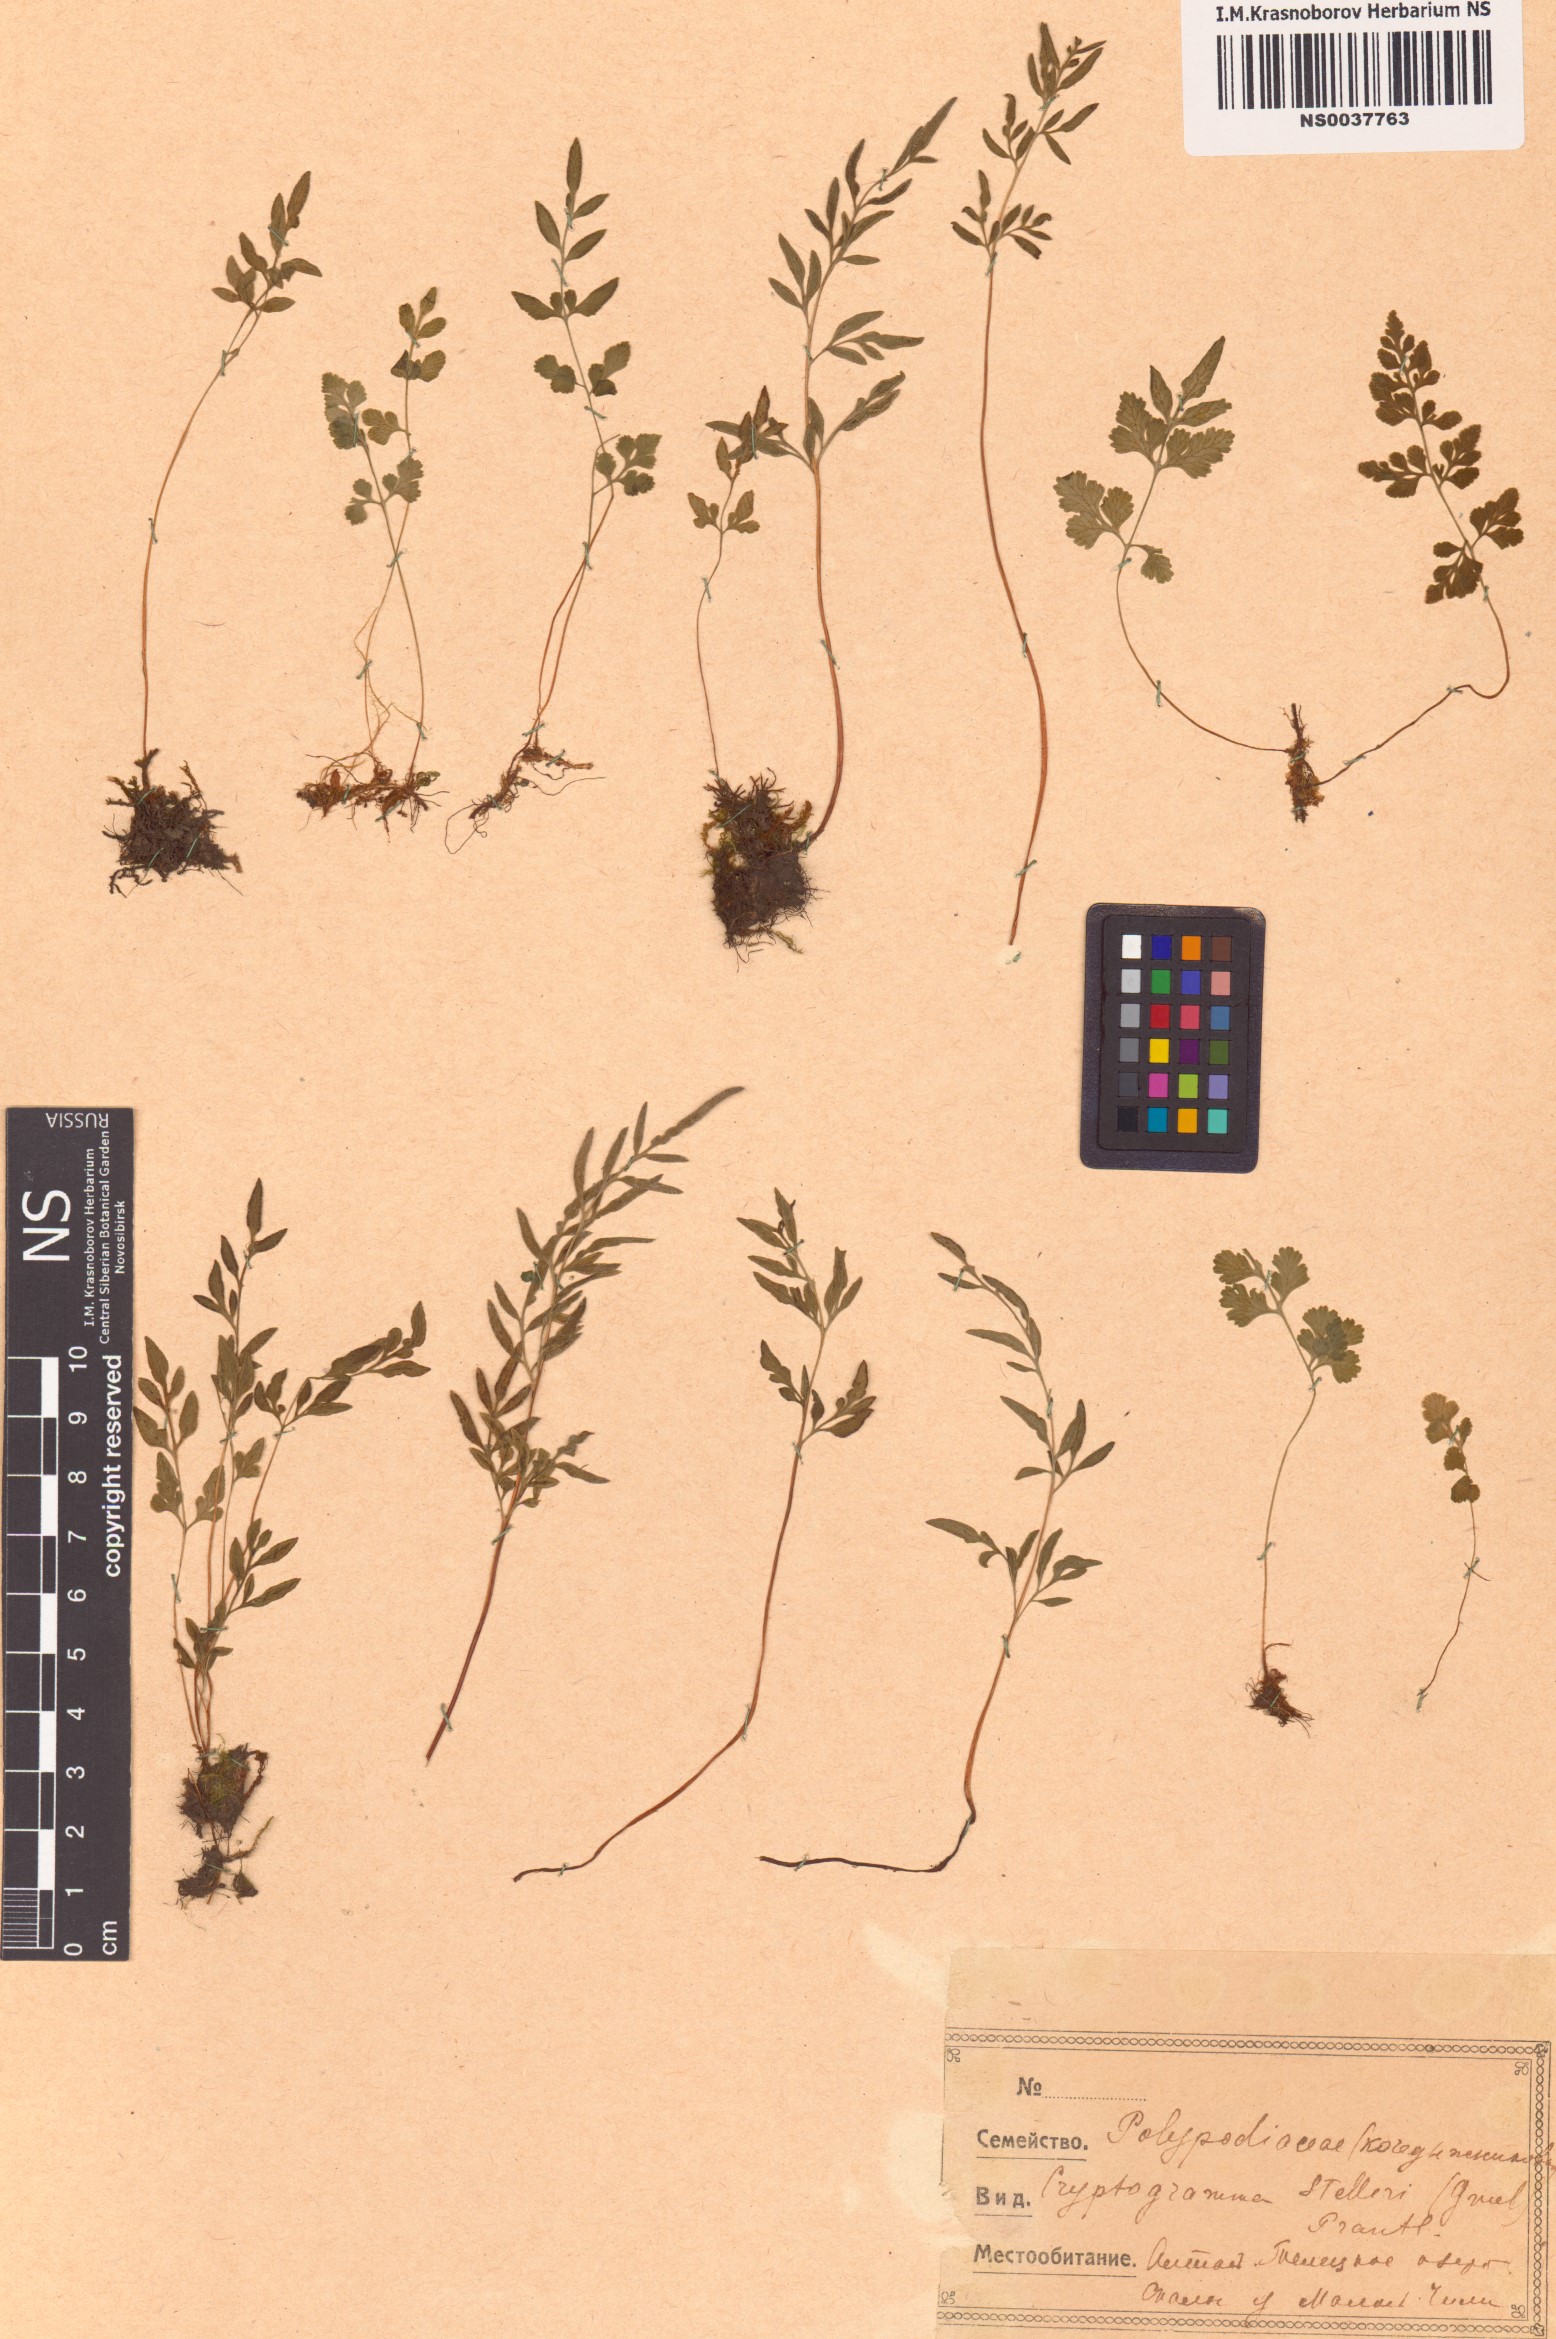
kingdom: Plantae
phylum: Tracheophyta
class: Polypodiopsida
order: Polypodiales
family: Pteridaceae
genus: Cryptogramma
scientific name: Cryptogramma stelleri
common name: Cliff-brake
